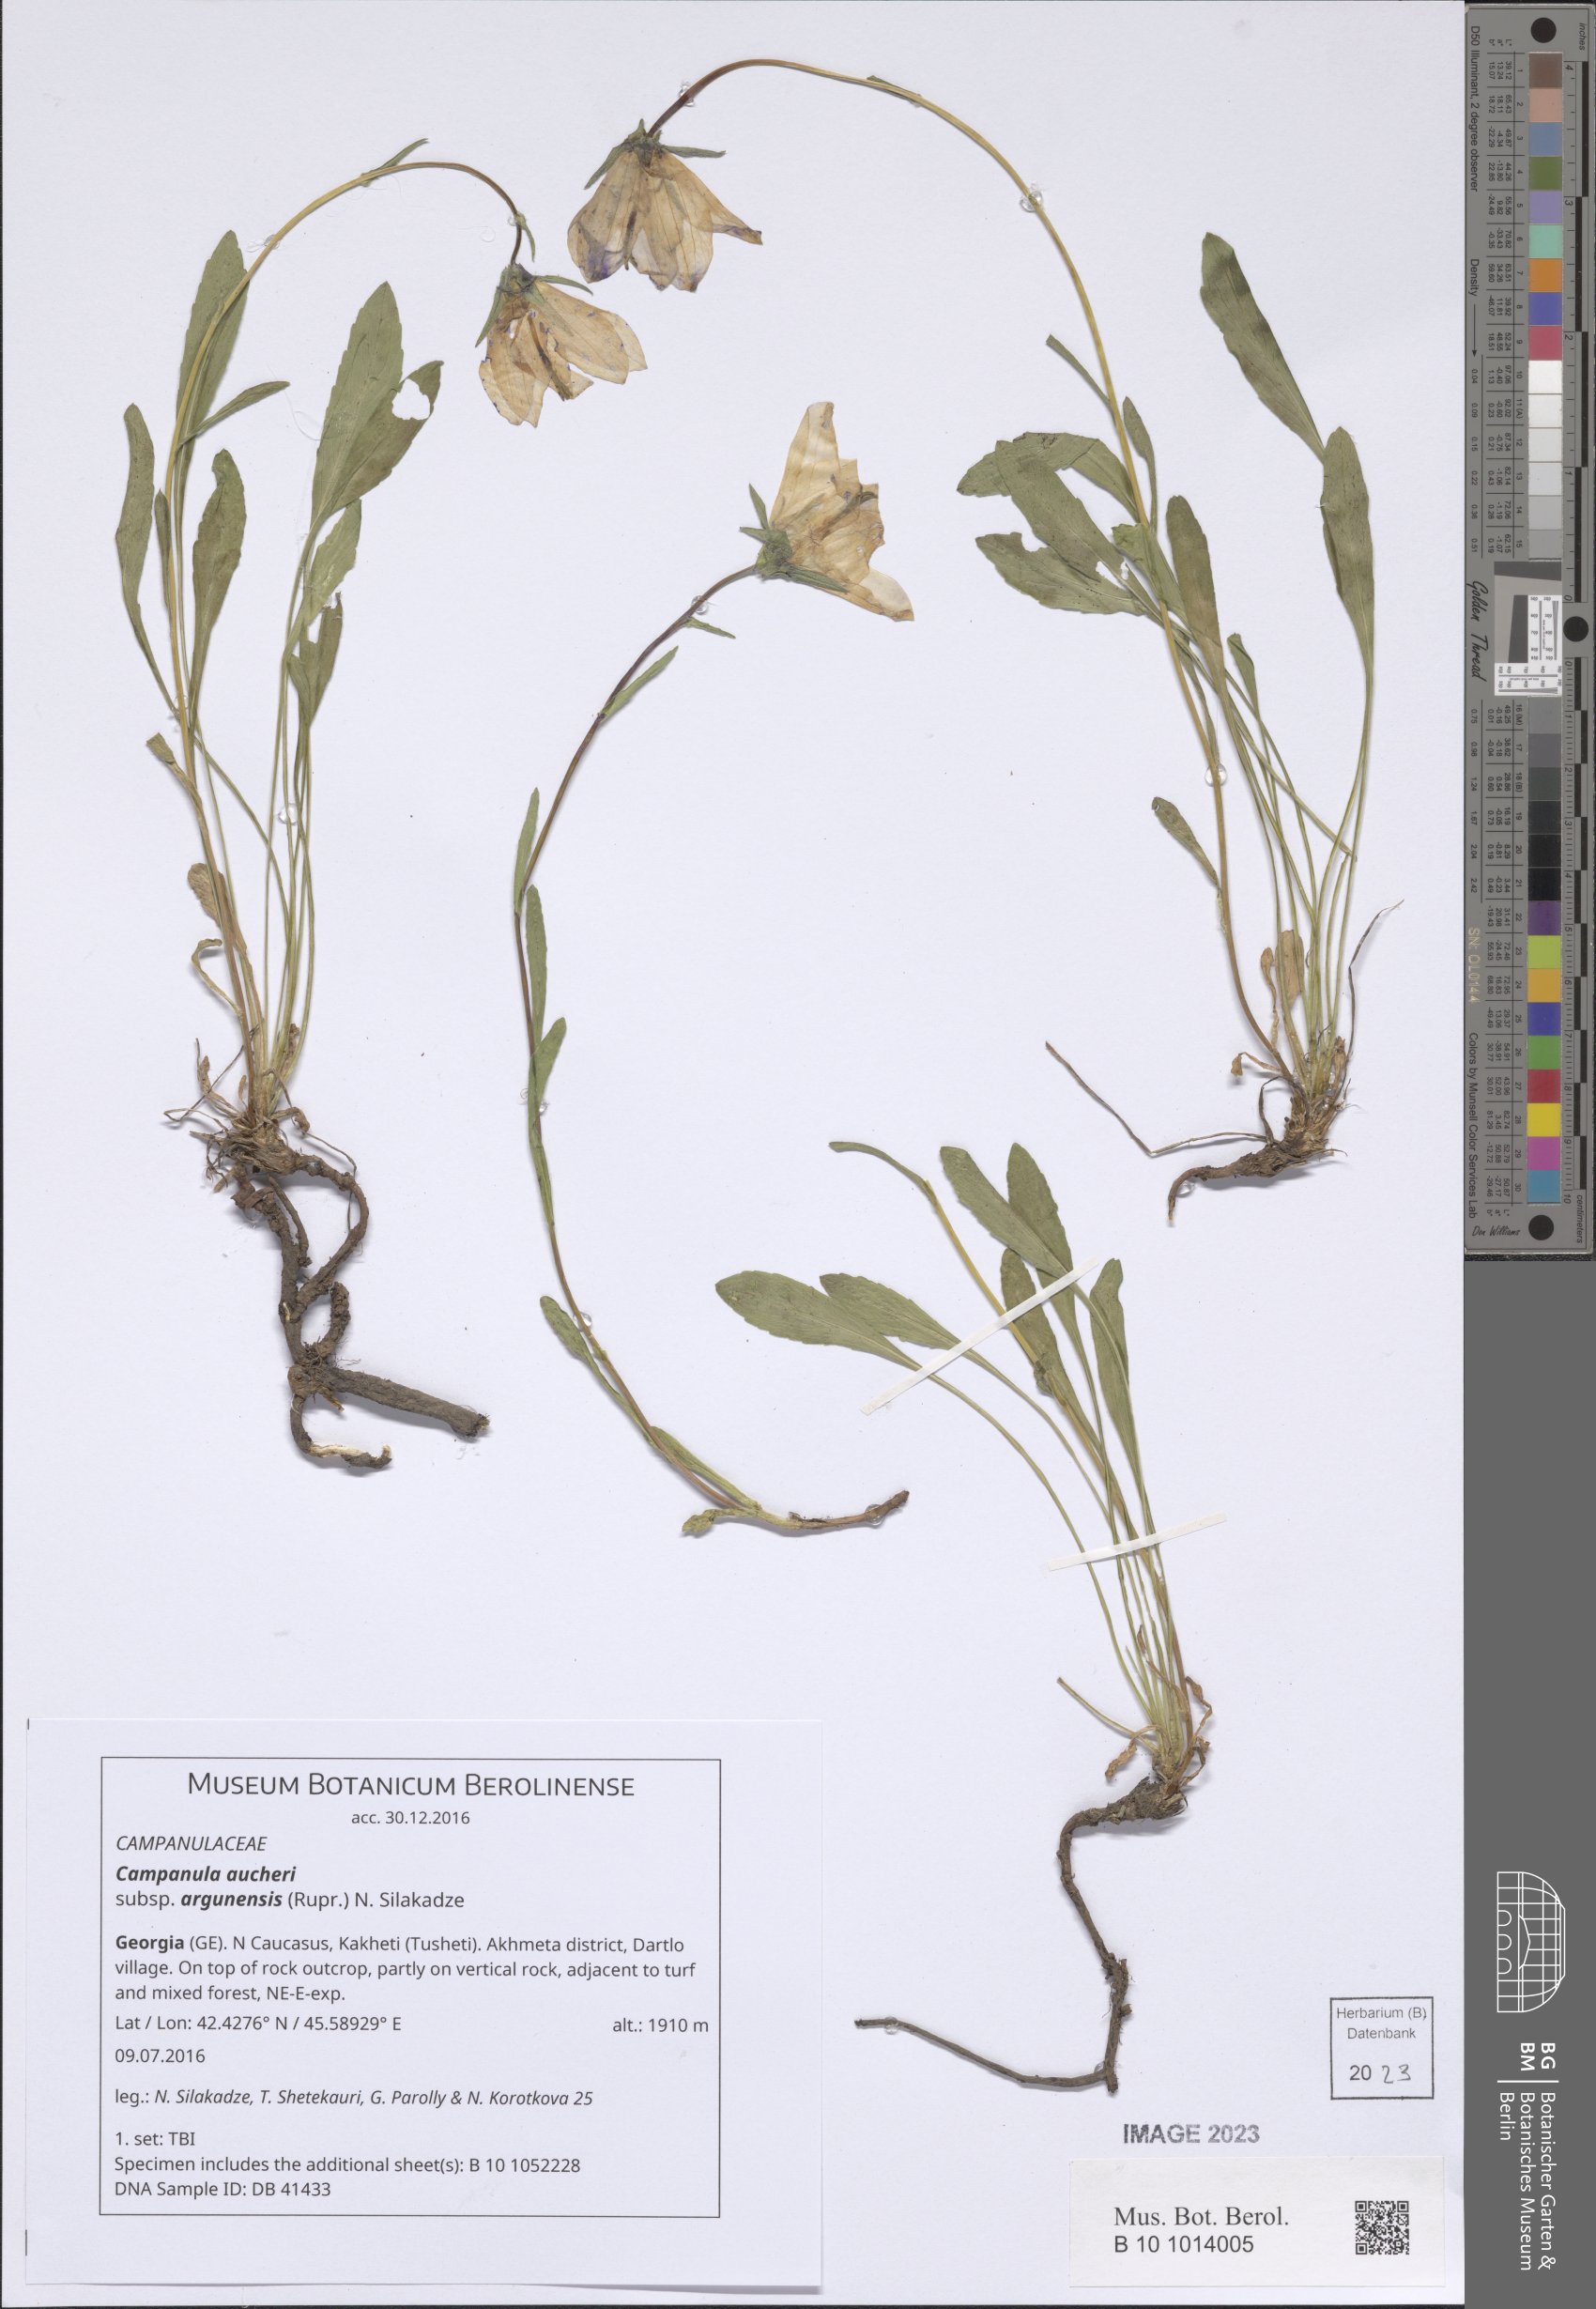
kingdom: Plantae
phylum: Tracheophyta
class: Magnoliopsida
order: Asterales
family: Campanulaceae
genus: Campanula
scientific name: Campanula saxifraga
